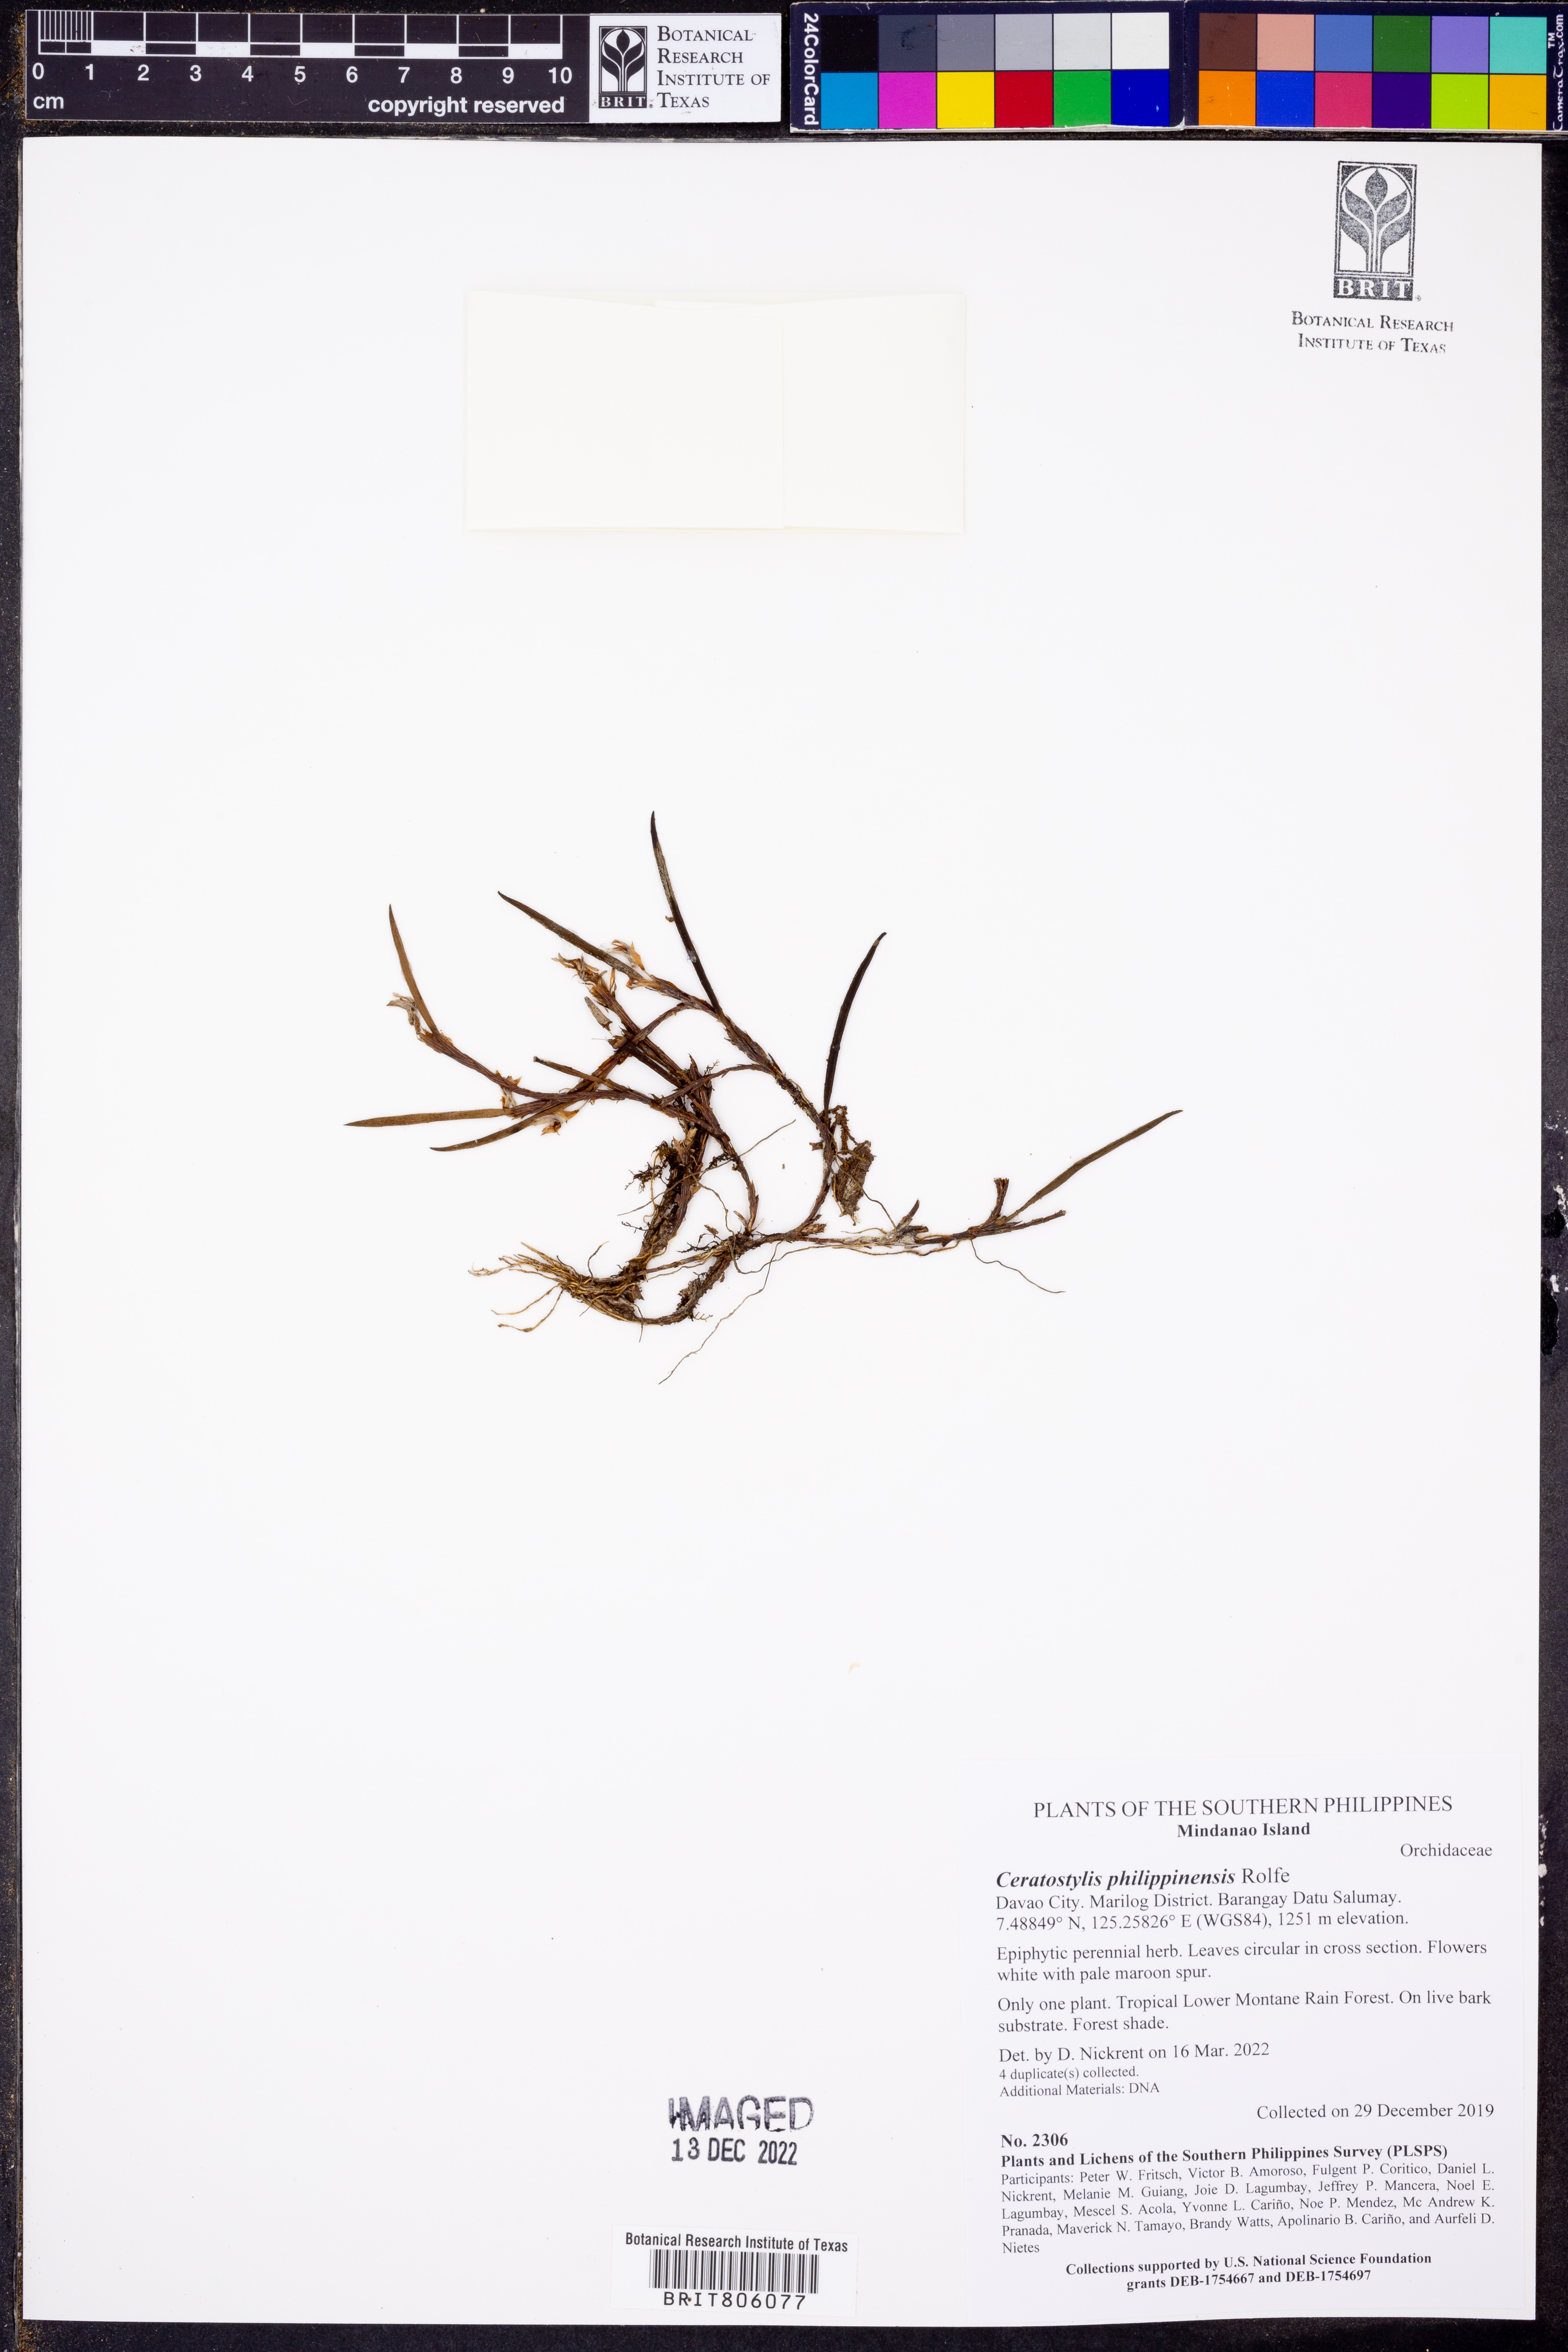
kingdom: Plantae
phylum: Tracheophyta
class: Liliopsida
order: Asparagales
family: Orchidaceae
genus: Ceratostylis
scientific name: Ceratostylis philippinensis
